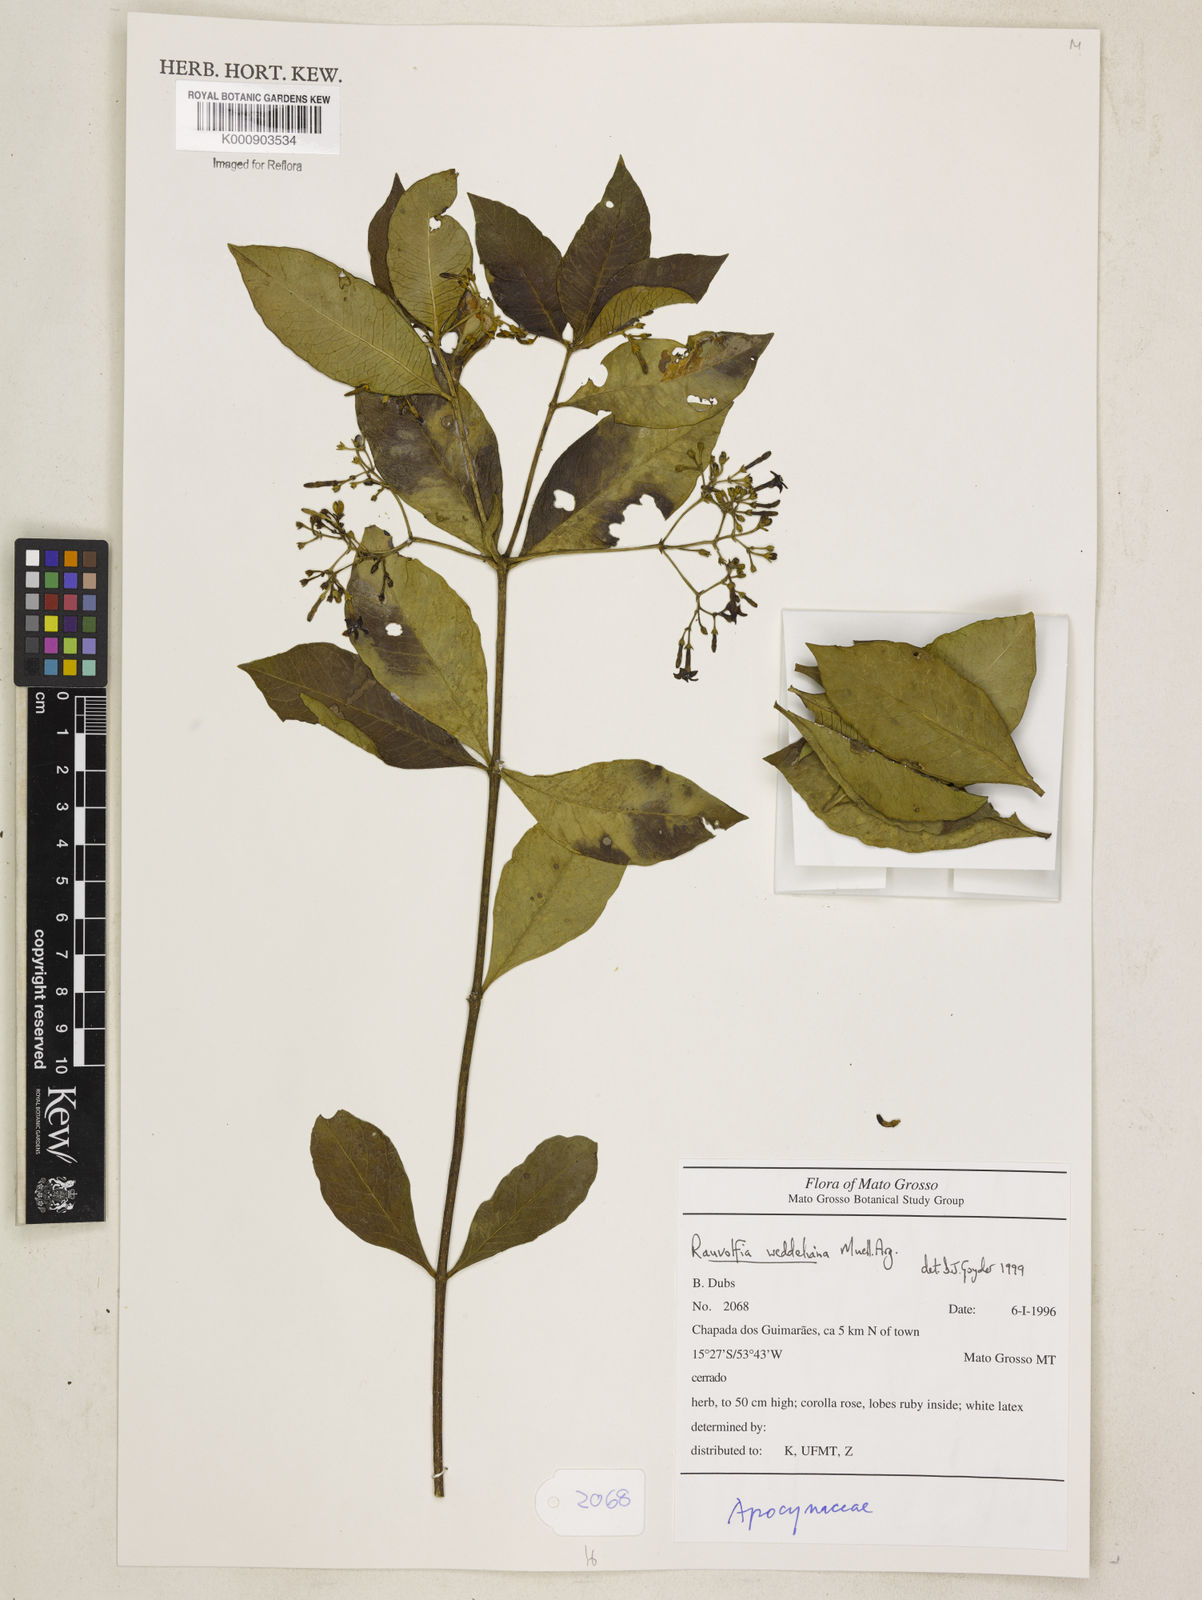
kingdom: Plantae
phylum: Tracheophyta
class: Magnoliopsida
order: Gentianales
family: Apocynaceae
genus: Rauvolfia
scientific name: Rauvolfia
